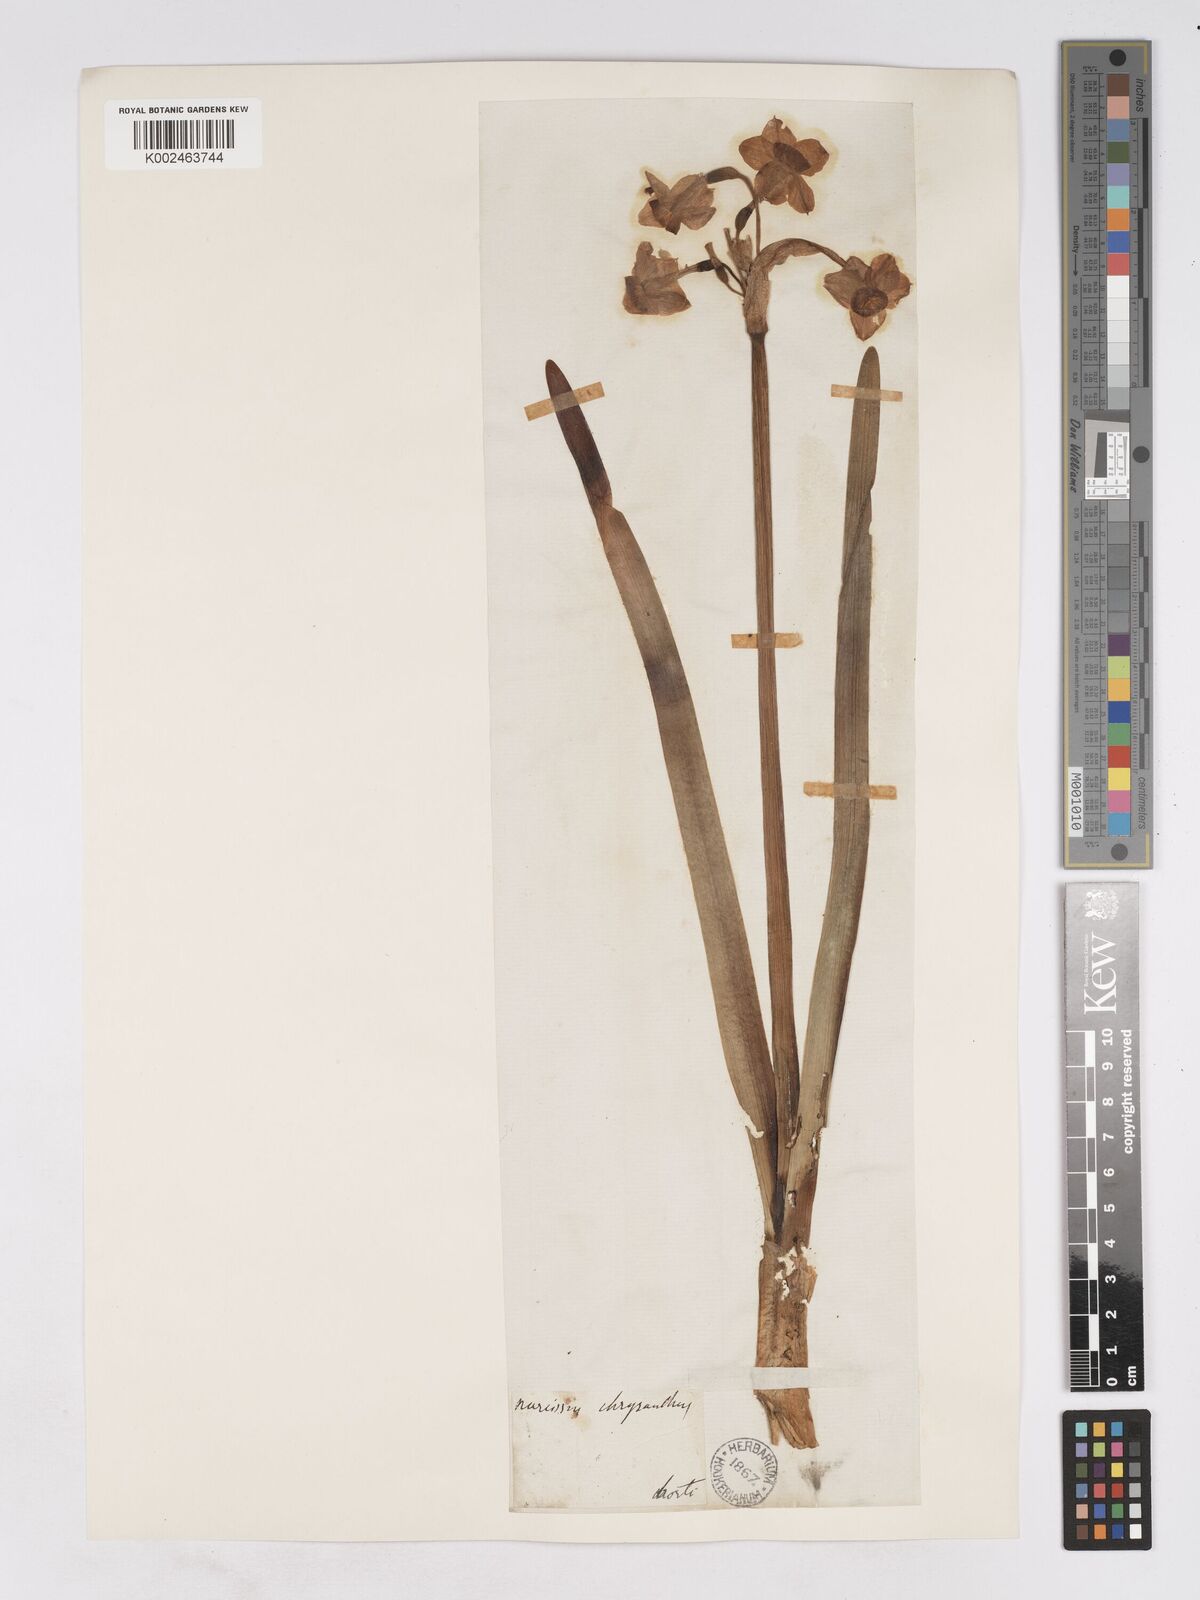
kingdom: Plantae
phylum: Tracheophyta
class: Liliopsida
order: Asparagales
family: Amaryllidaceae
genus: Narcissus
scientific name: Narcissus
